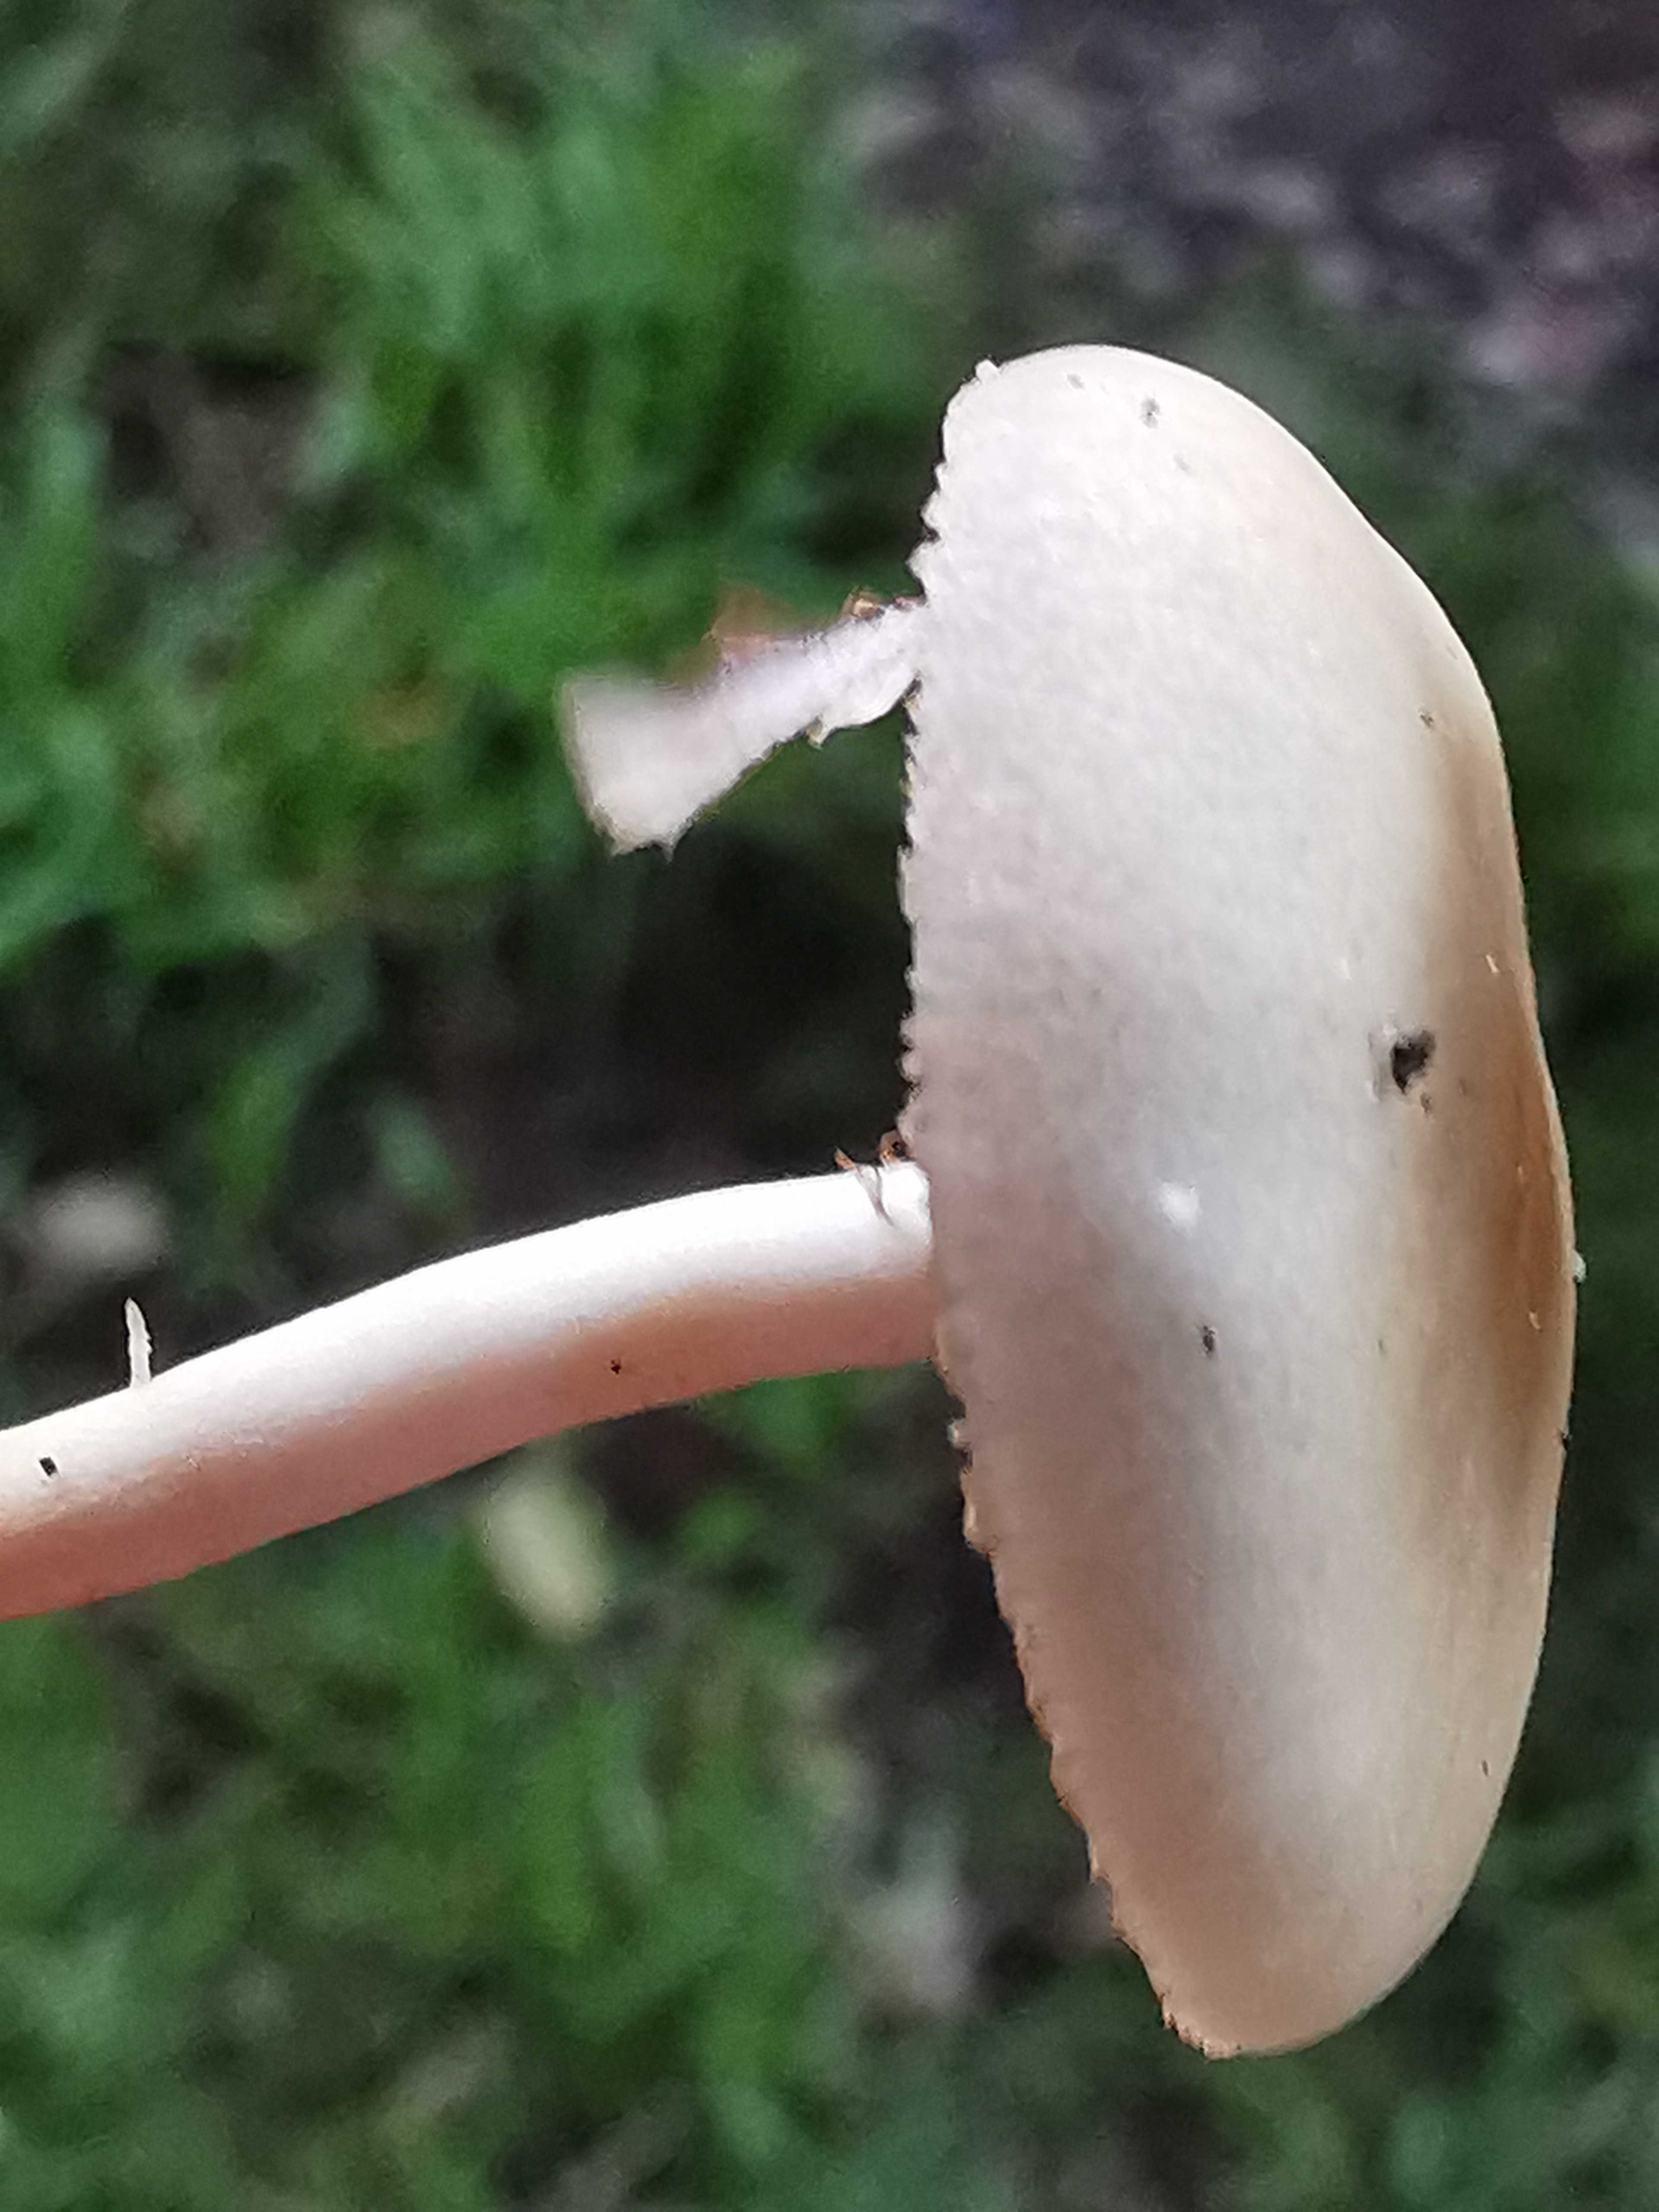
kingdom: Fungi
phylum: Basidiomycota
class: Agaricomycetes
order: Agaricales
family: Psathyrellaceae
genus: Candolleomyces
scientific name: Candolleomyces candolleanus
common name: Candolles mørkhat
